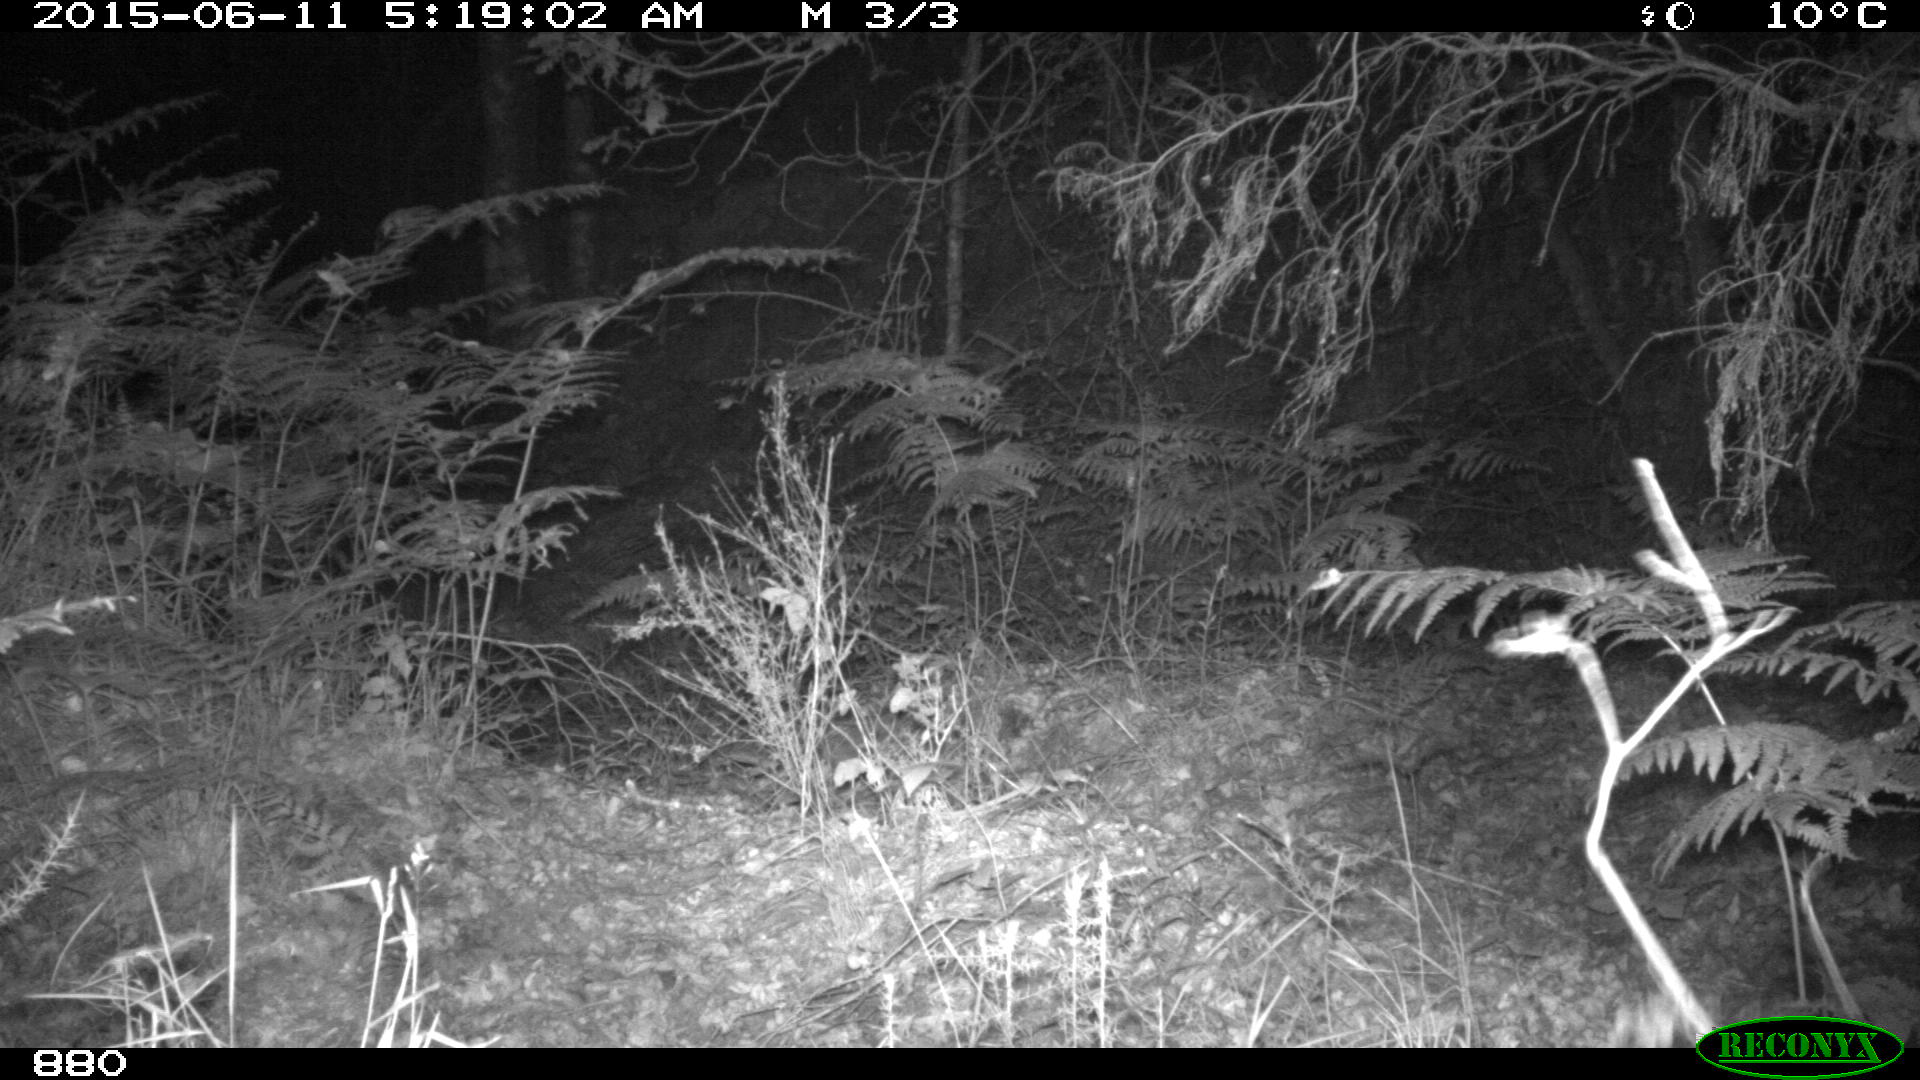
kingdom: Animalia
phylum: Chordata
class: Mammalia
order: Artiodactyla
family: Suidae
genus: Sus
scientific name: Sus scrofa
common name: Wild boar
